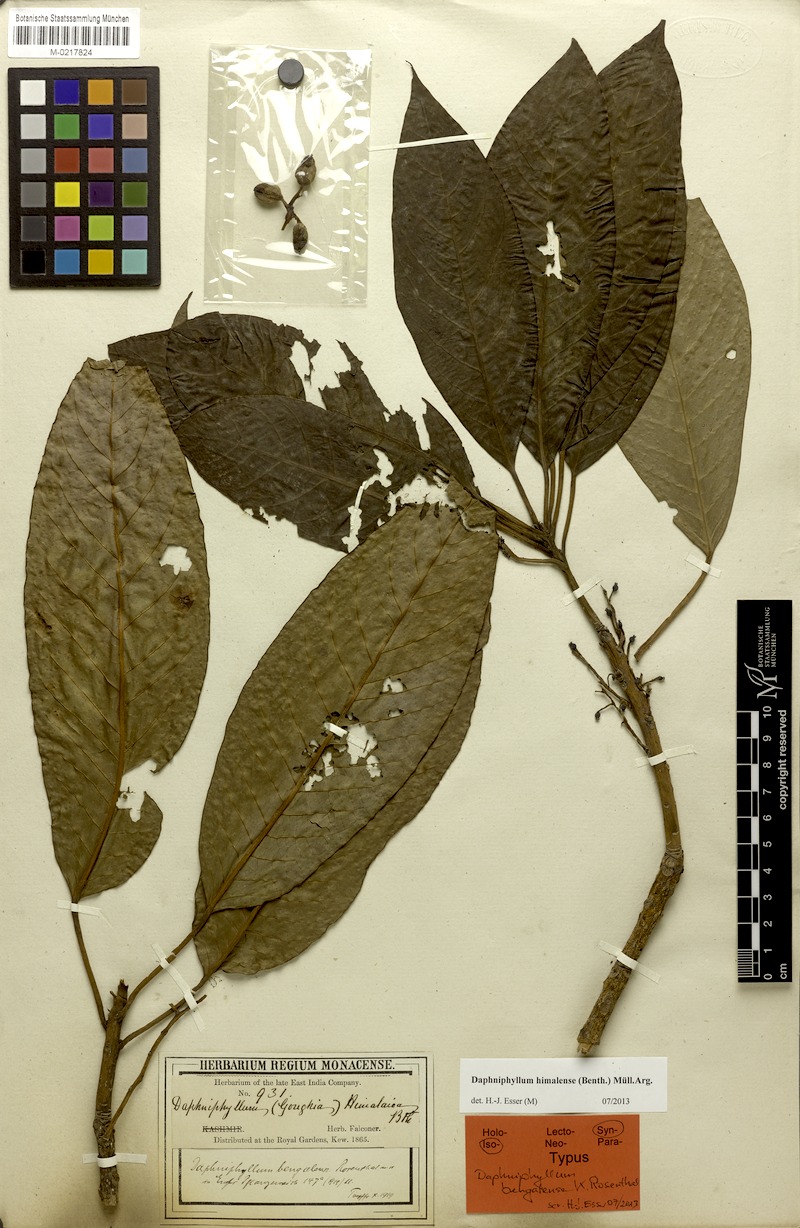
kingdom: Plantae
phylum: Tracheophyta
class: Magnoliopsida
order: Saxifragales
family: Daphniphyllaceae
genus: Daphniphyllum
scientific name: Daphniphyllum himalense
